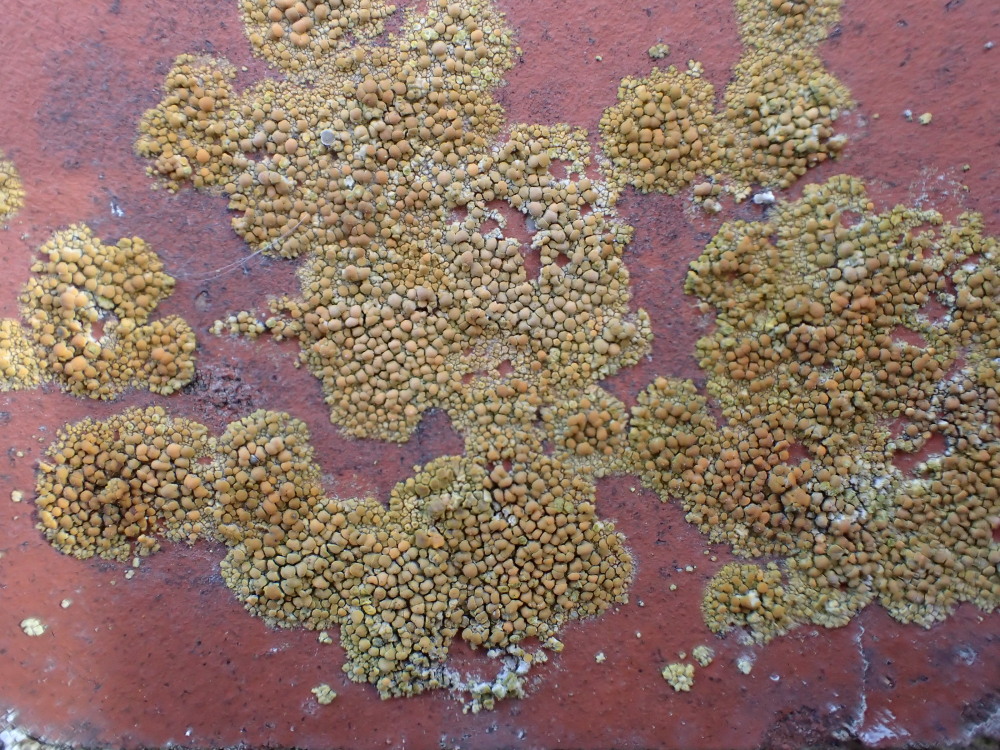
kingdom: Fungi
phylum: Ascomycota
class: Lecanoromycetes
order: Teloschistales
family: Teloschistaceae
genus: Calogaya
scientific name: Calogaya saxicola
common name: mur-orangelav
